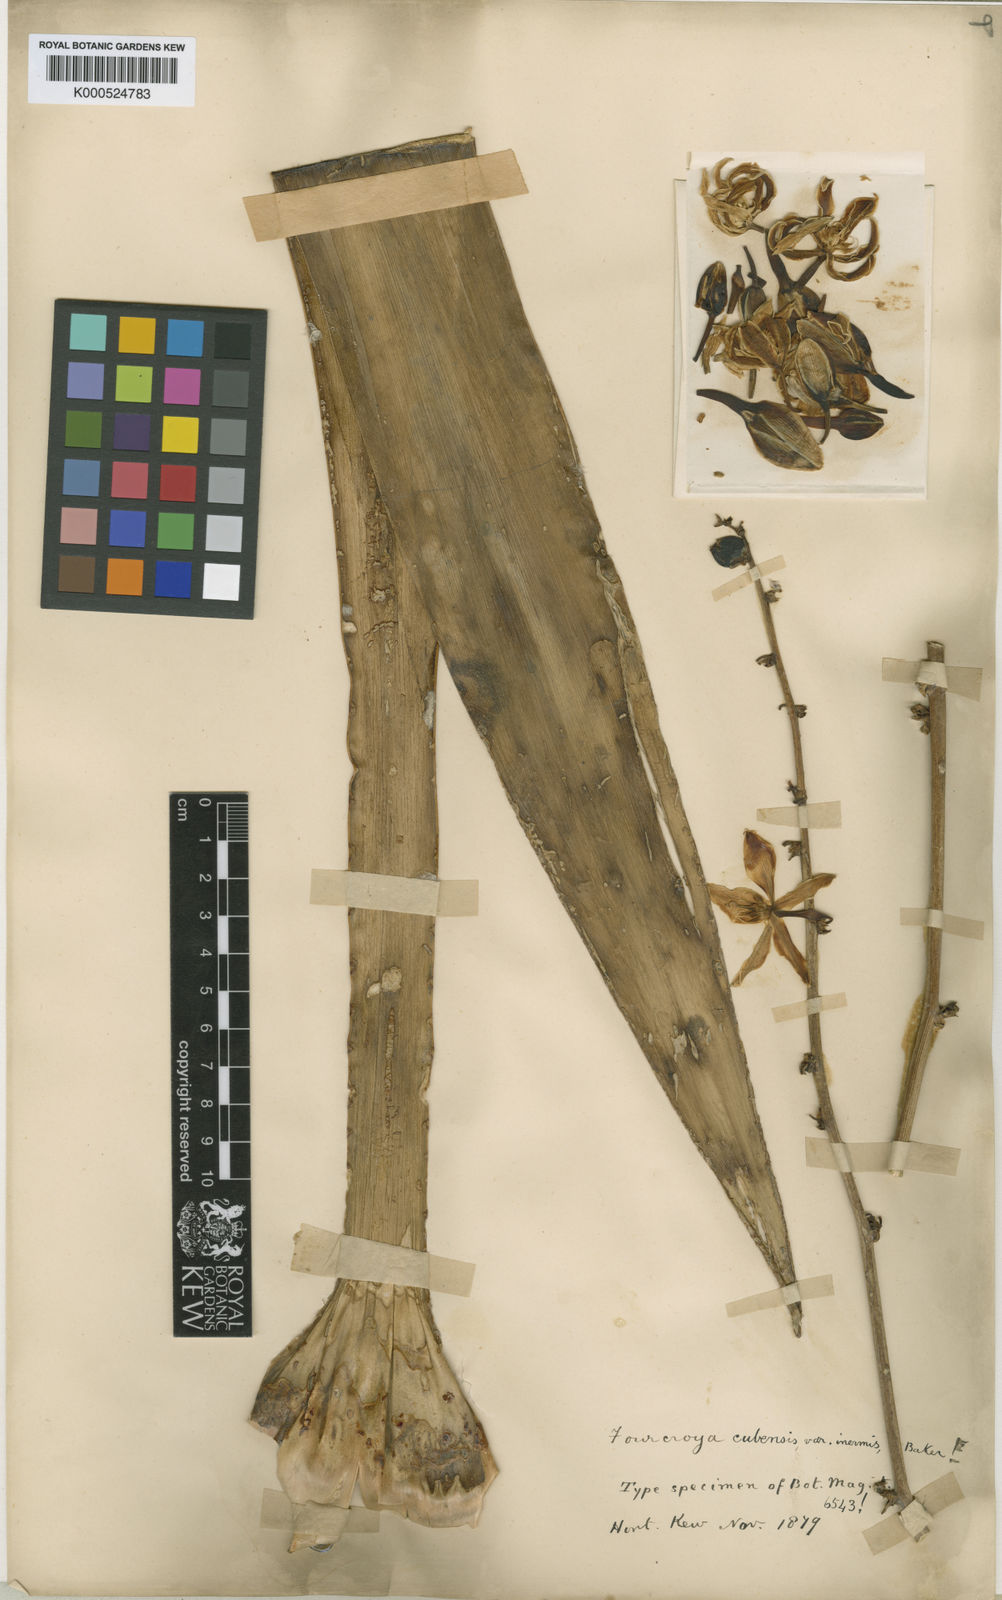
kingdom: Plantae
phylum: Tracheophyta
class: Liliopsida
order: Asparagales
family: Asparagaceae
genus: Furcraea
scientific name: Furcraea hexapetala
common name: Cuban-hemp
